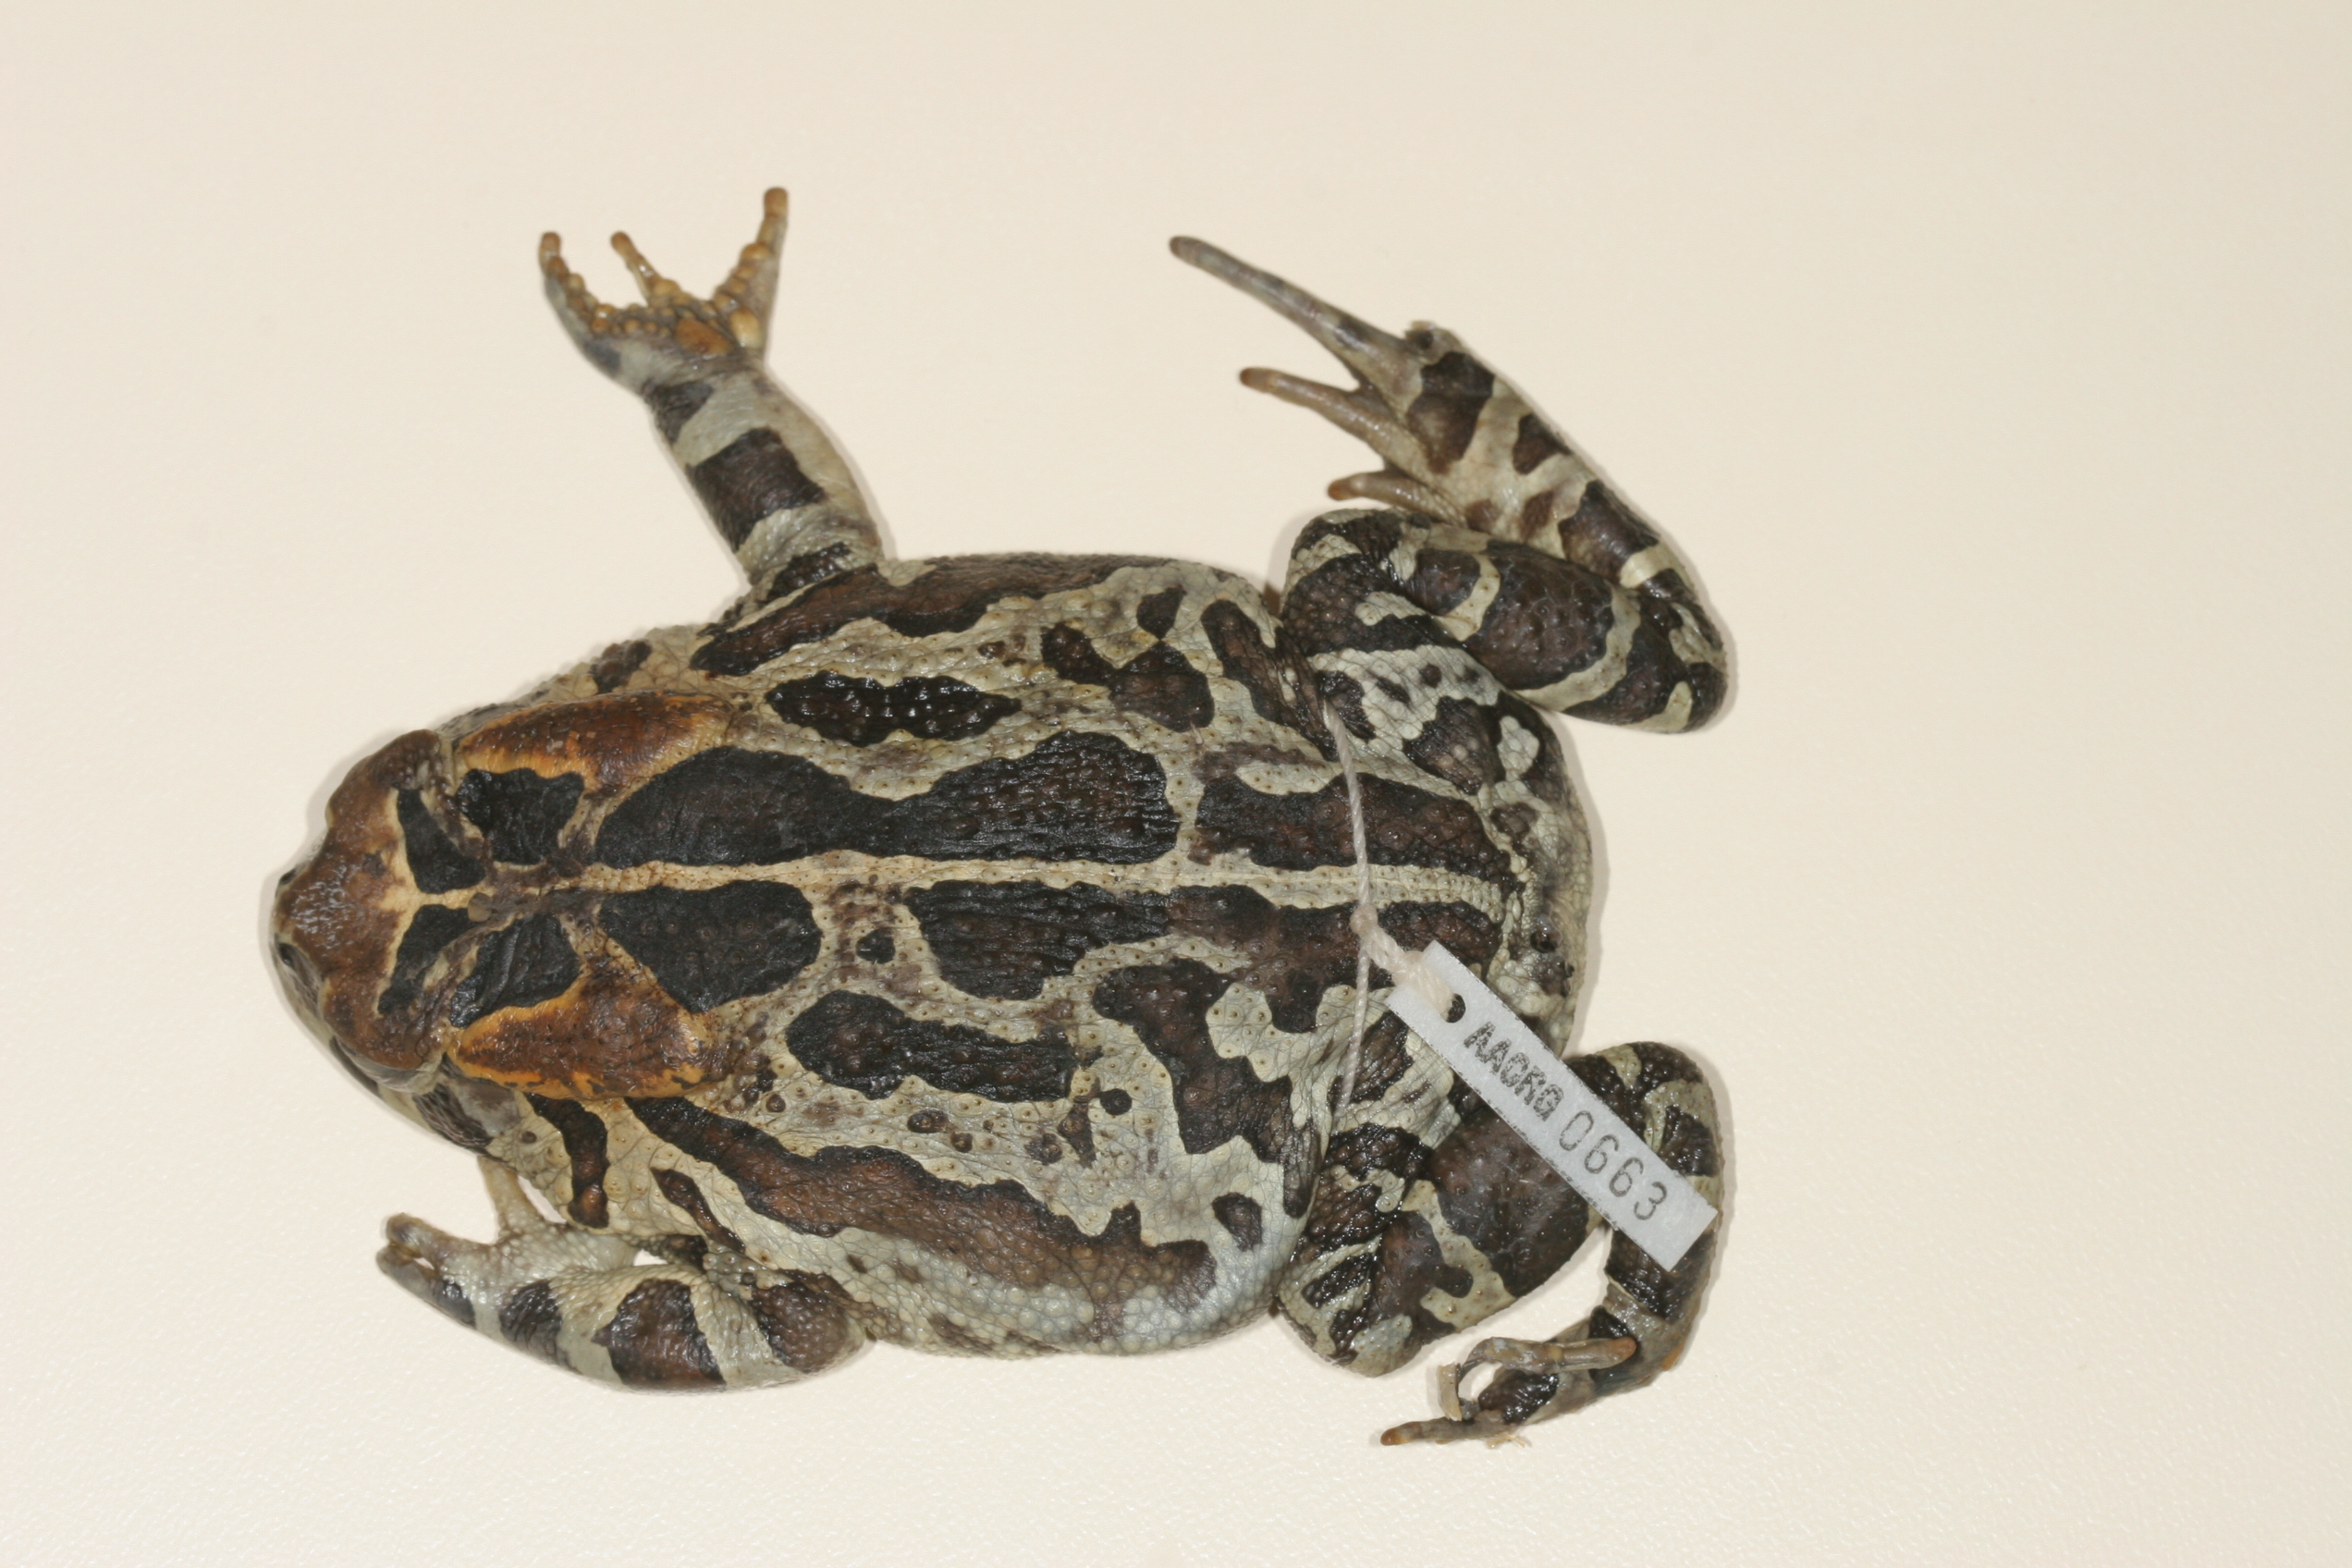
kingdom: Animalia
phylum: Chordata
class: Amphibia
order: Anura
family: Bufonidae
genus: Sclerophrys
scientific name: Sclerophrys pantherina
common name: Panther toad
